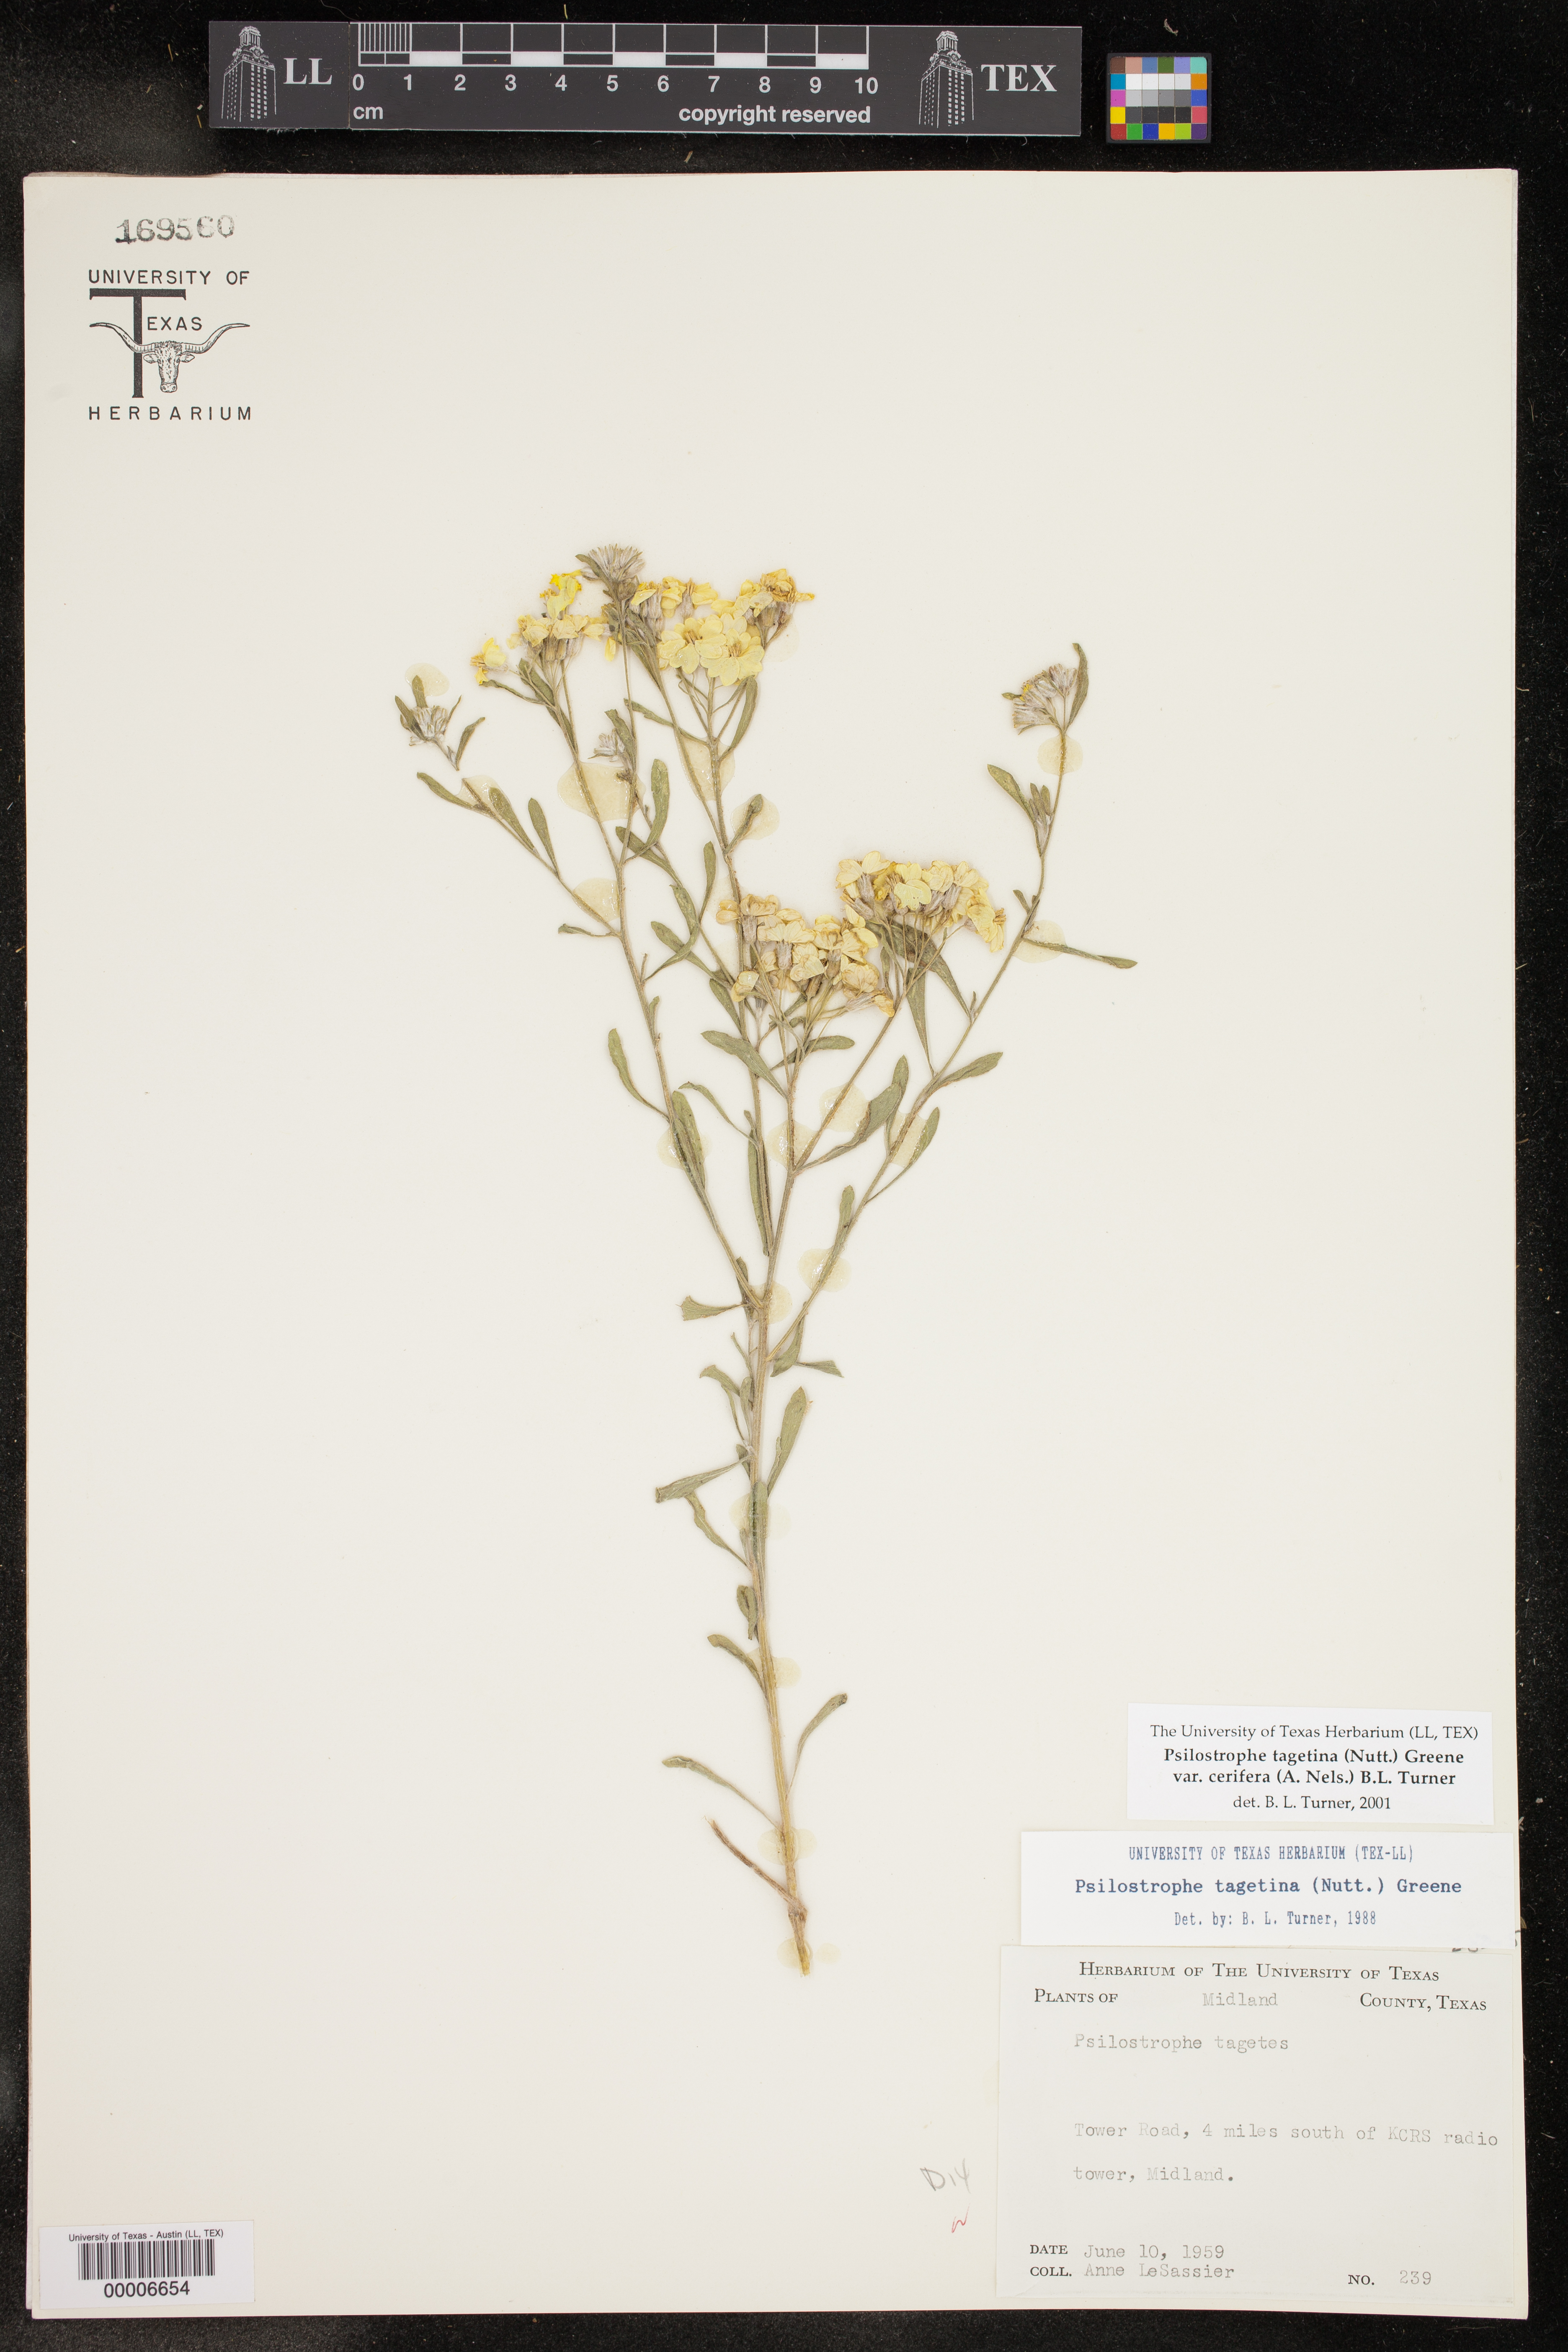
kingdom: Plantae
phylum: Tracheophyta
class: Magnoliopsida
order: Asterales
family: Asteraceae
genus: Psilostrophe
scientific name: Psilostrophe villosa
